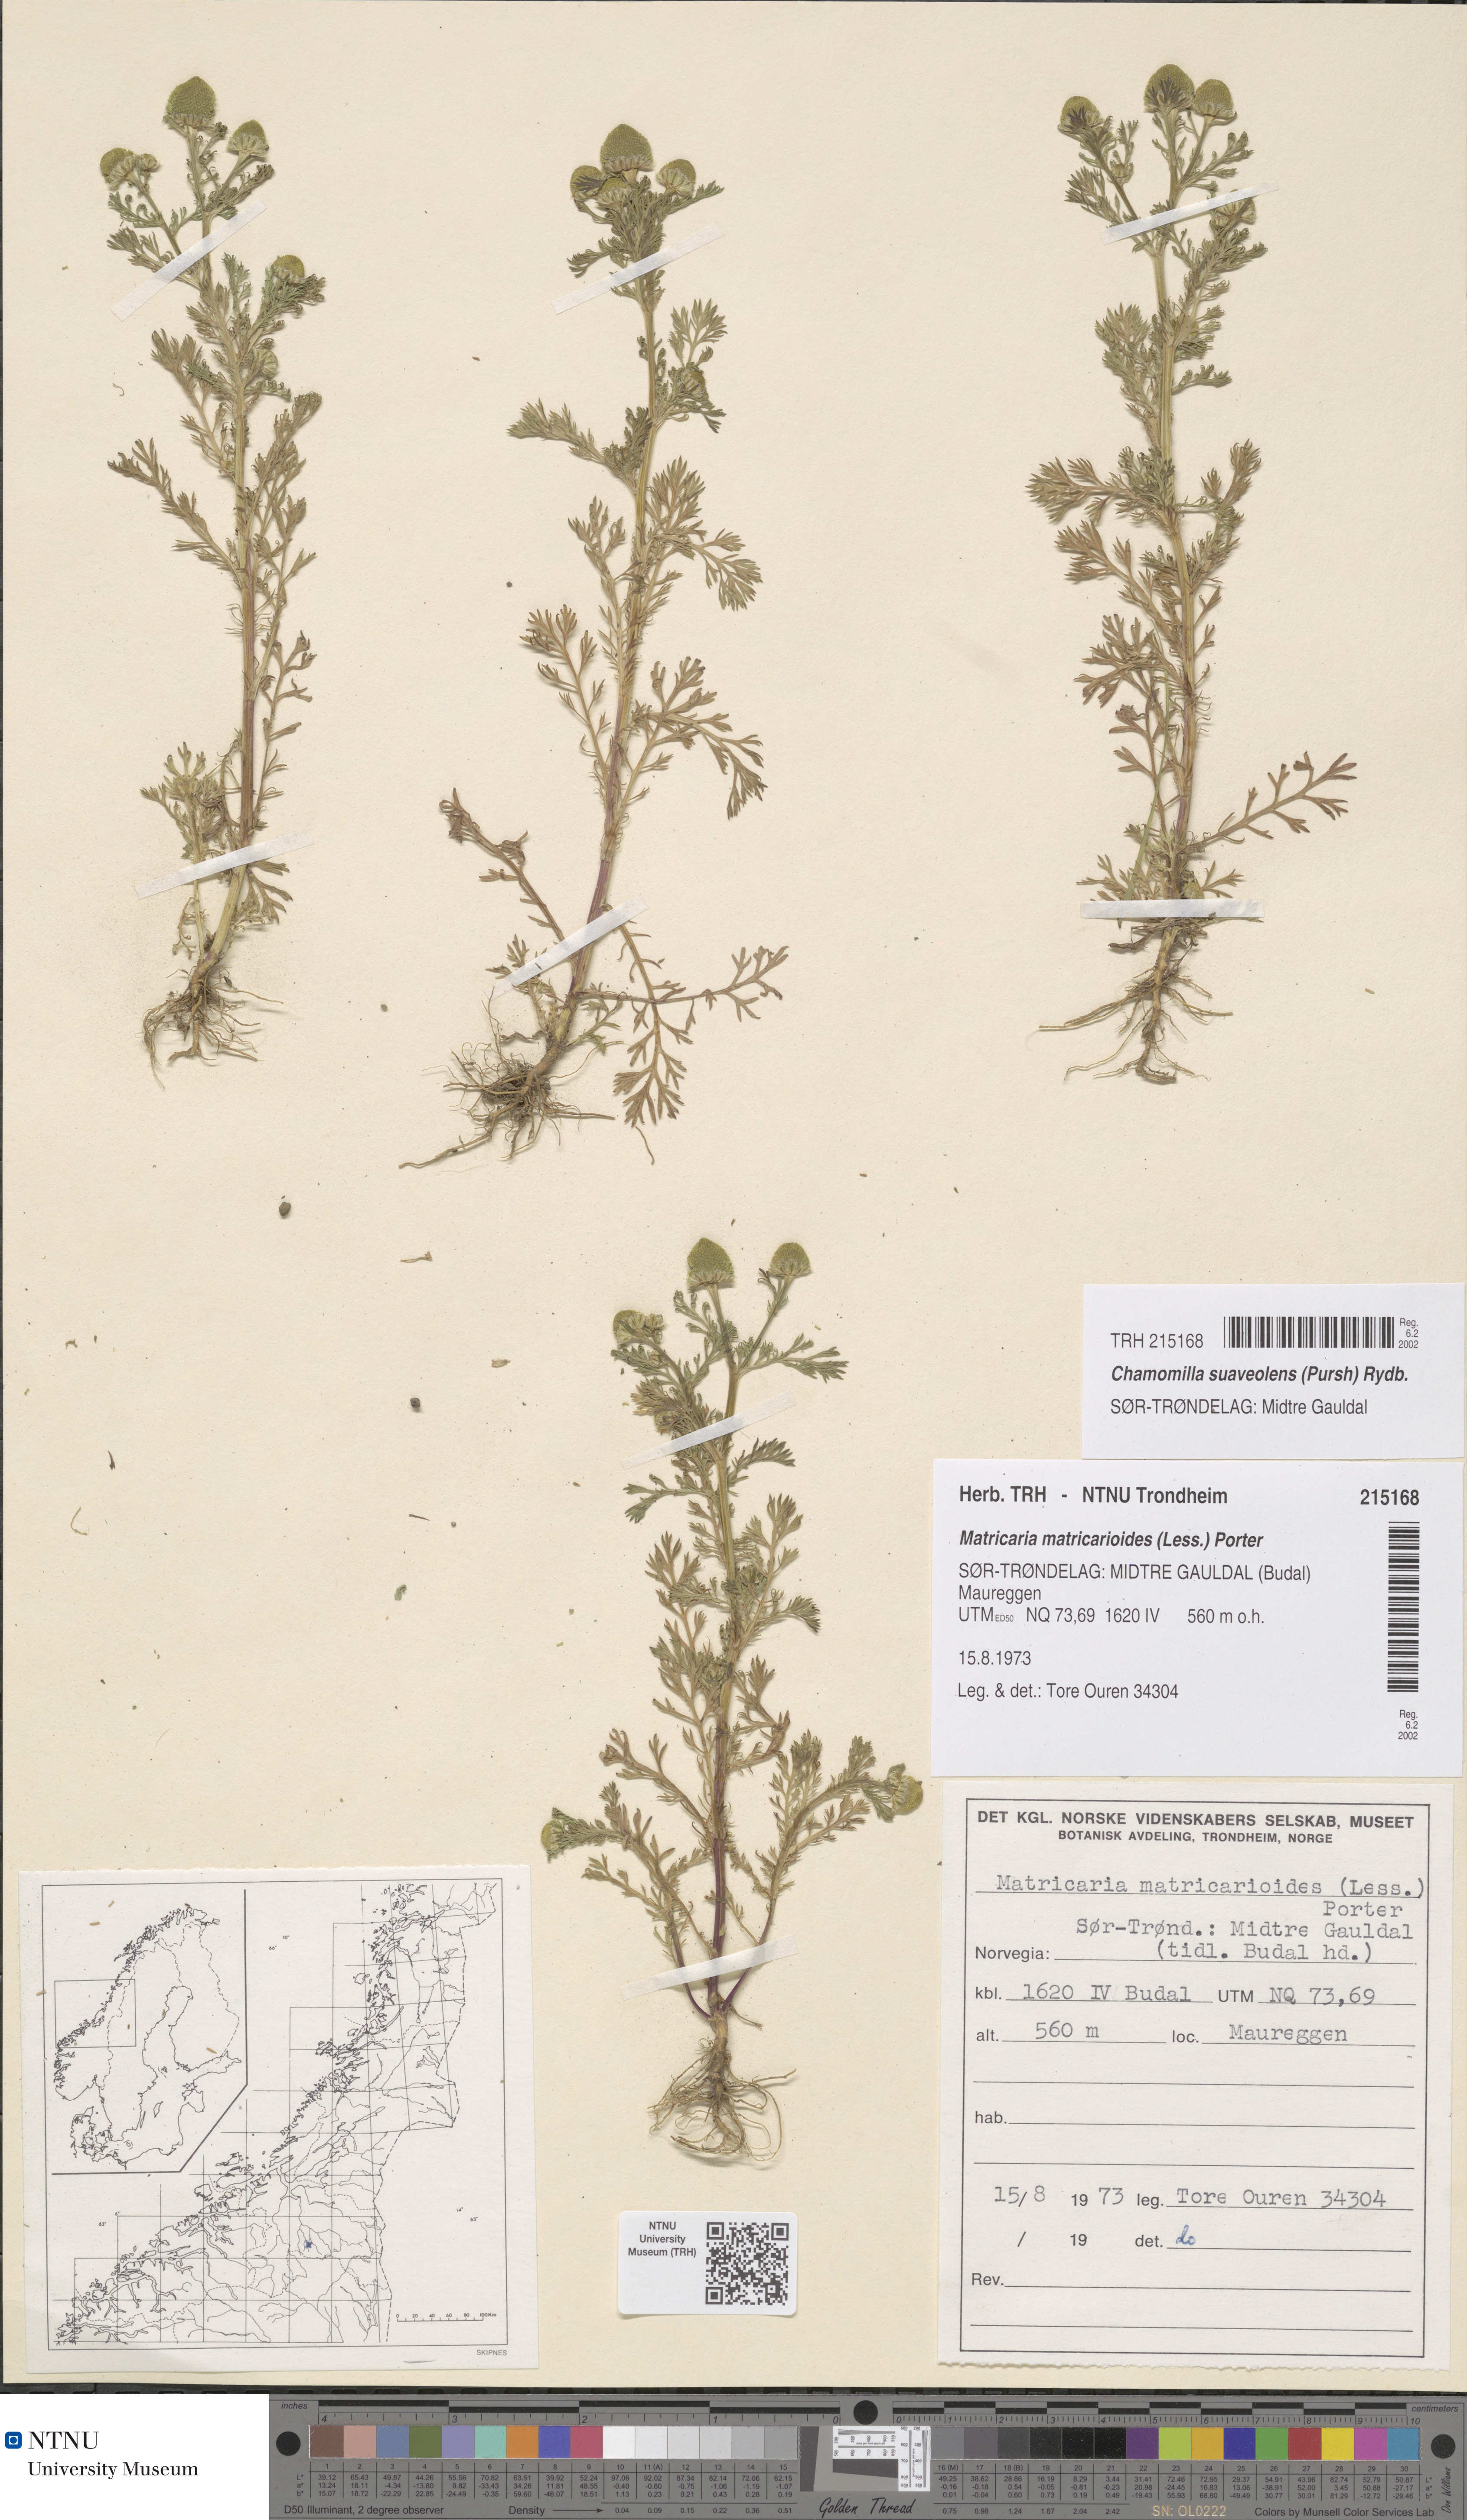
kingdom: Plantae
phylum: Tracheophyta
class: Magnoliopsida
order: Asterales
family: Asteraceae
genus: Matricaria
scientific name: Matricaria discoidea
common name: Disc mayweed
